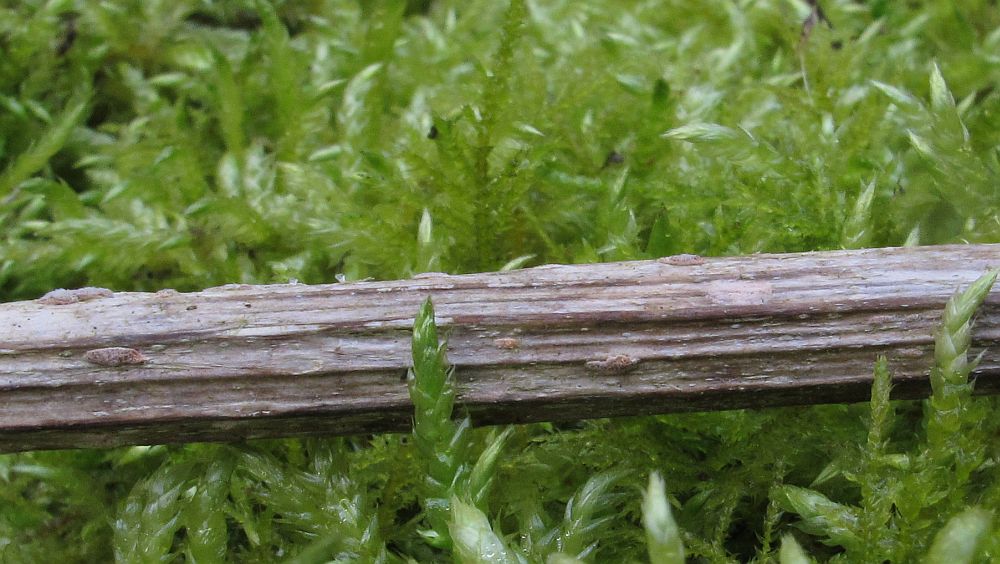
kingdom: Fungi
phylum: Ascomycota
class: Sordariomycetes
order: Hypocreales
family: Nectriaceae
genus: Sarcopodium
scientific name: Sarcopodium circinatum
